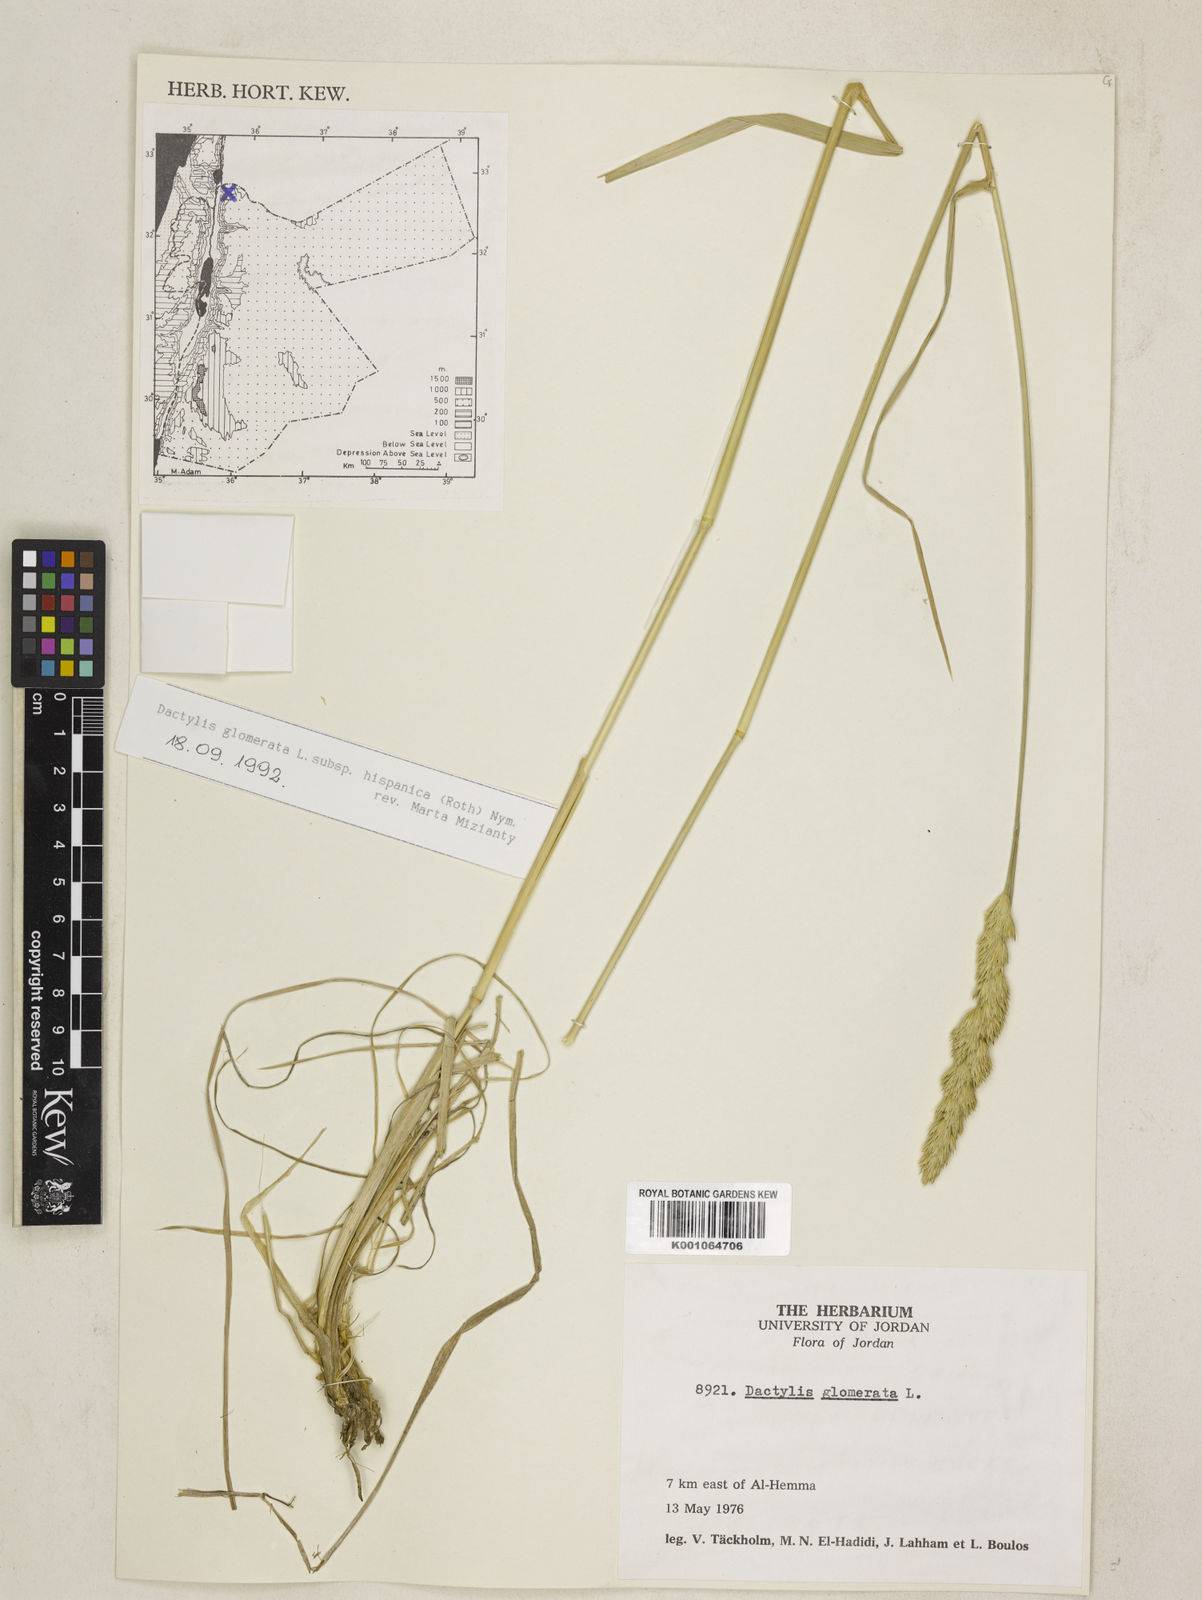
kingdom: Plantae
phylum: Tracheophyta
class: Liliopsida
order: Poales
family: Poaceae
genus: Dactylis
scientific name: Dactylis glomerata
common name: Orchardgrass
